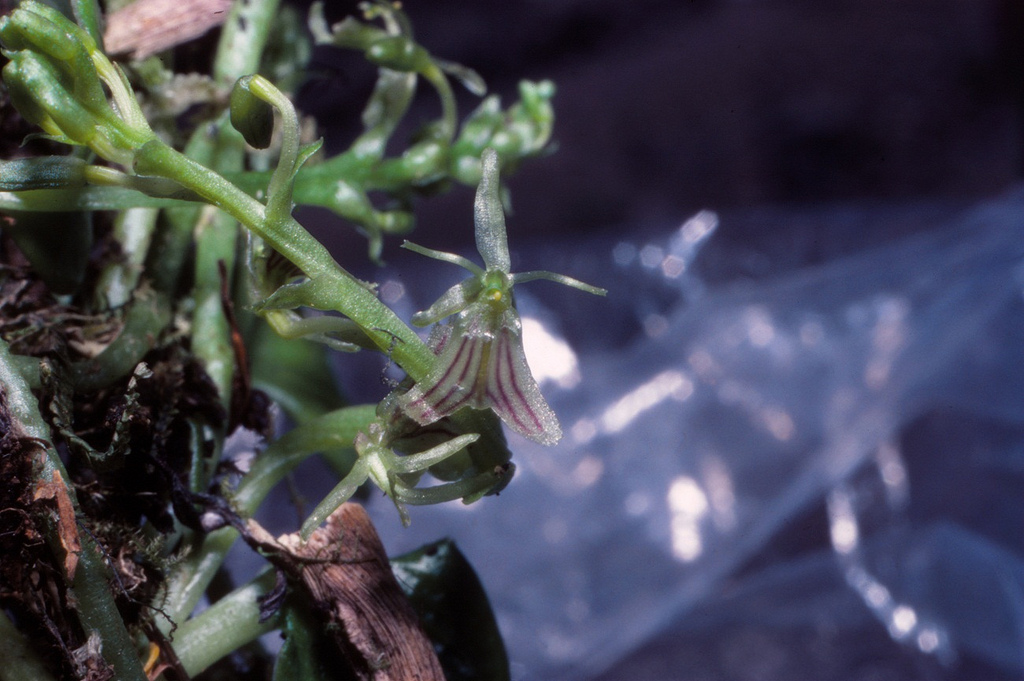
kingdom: Plantae
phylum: Tracheophyta
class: Liliopsida
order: Asparagales
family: Orchidaceae
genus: Liparis
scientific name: Liparis serpens
